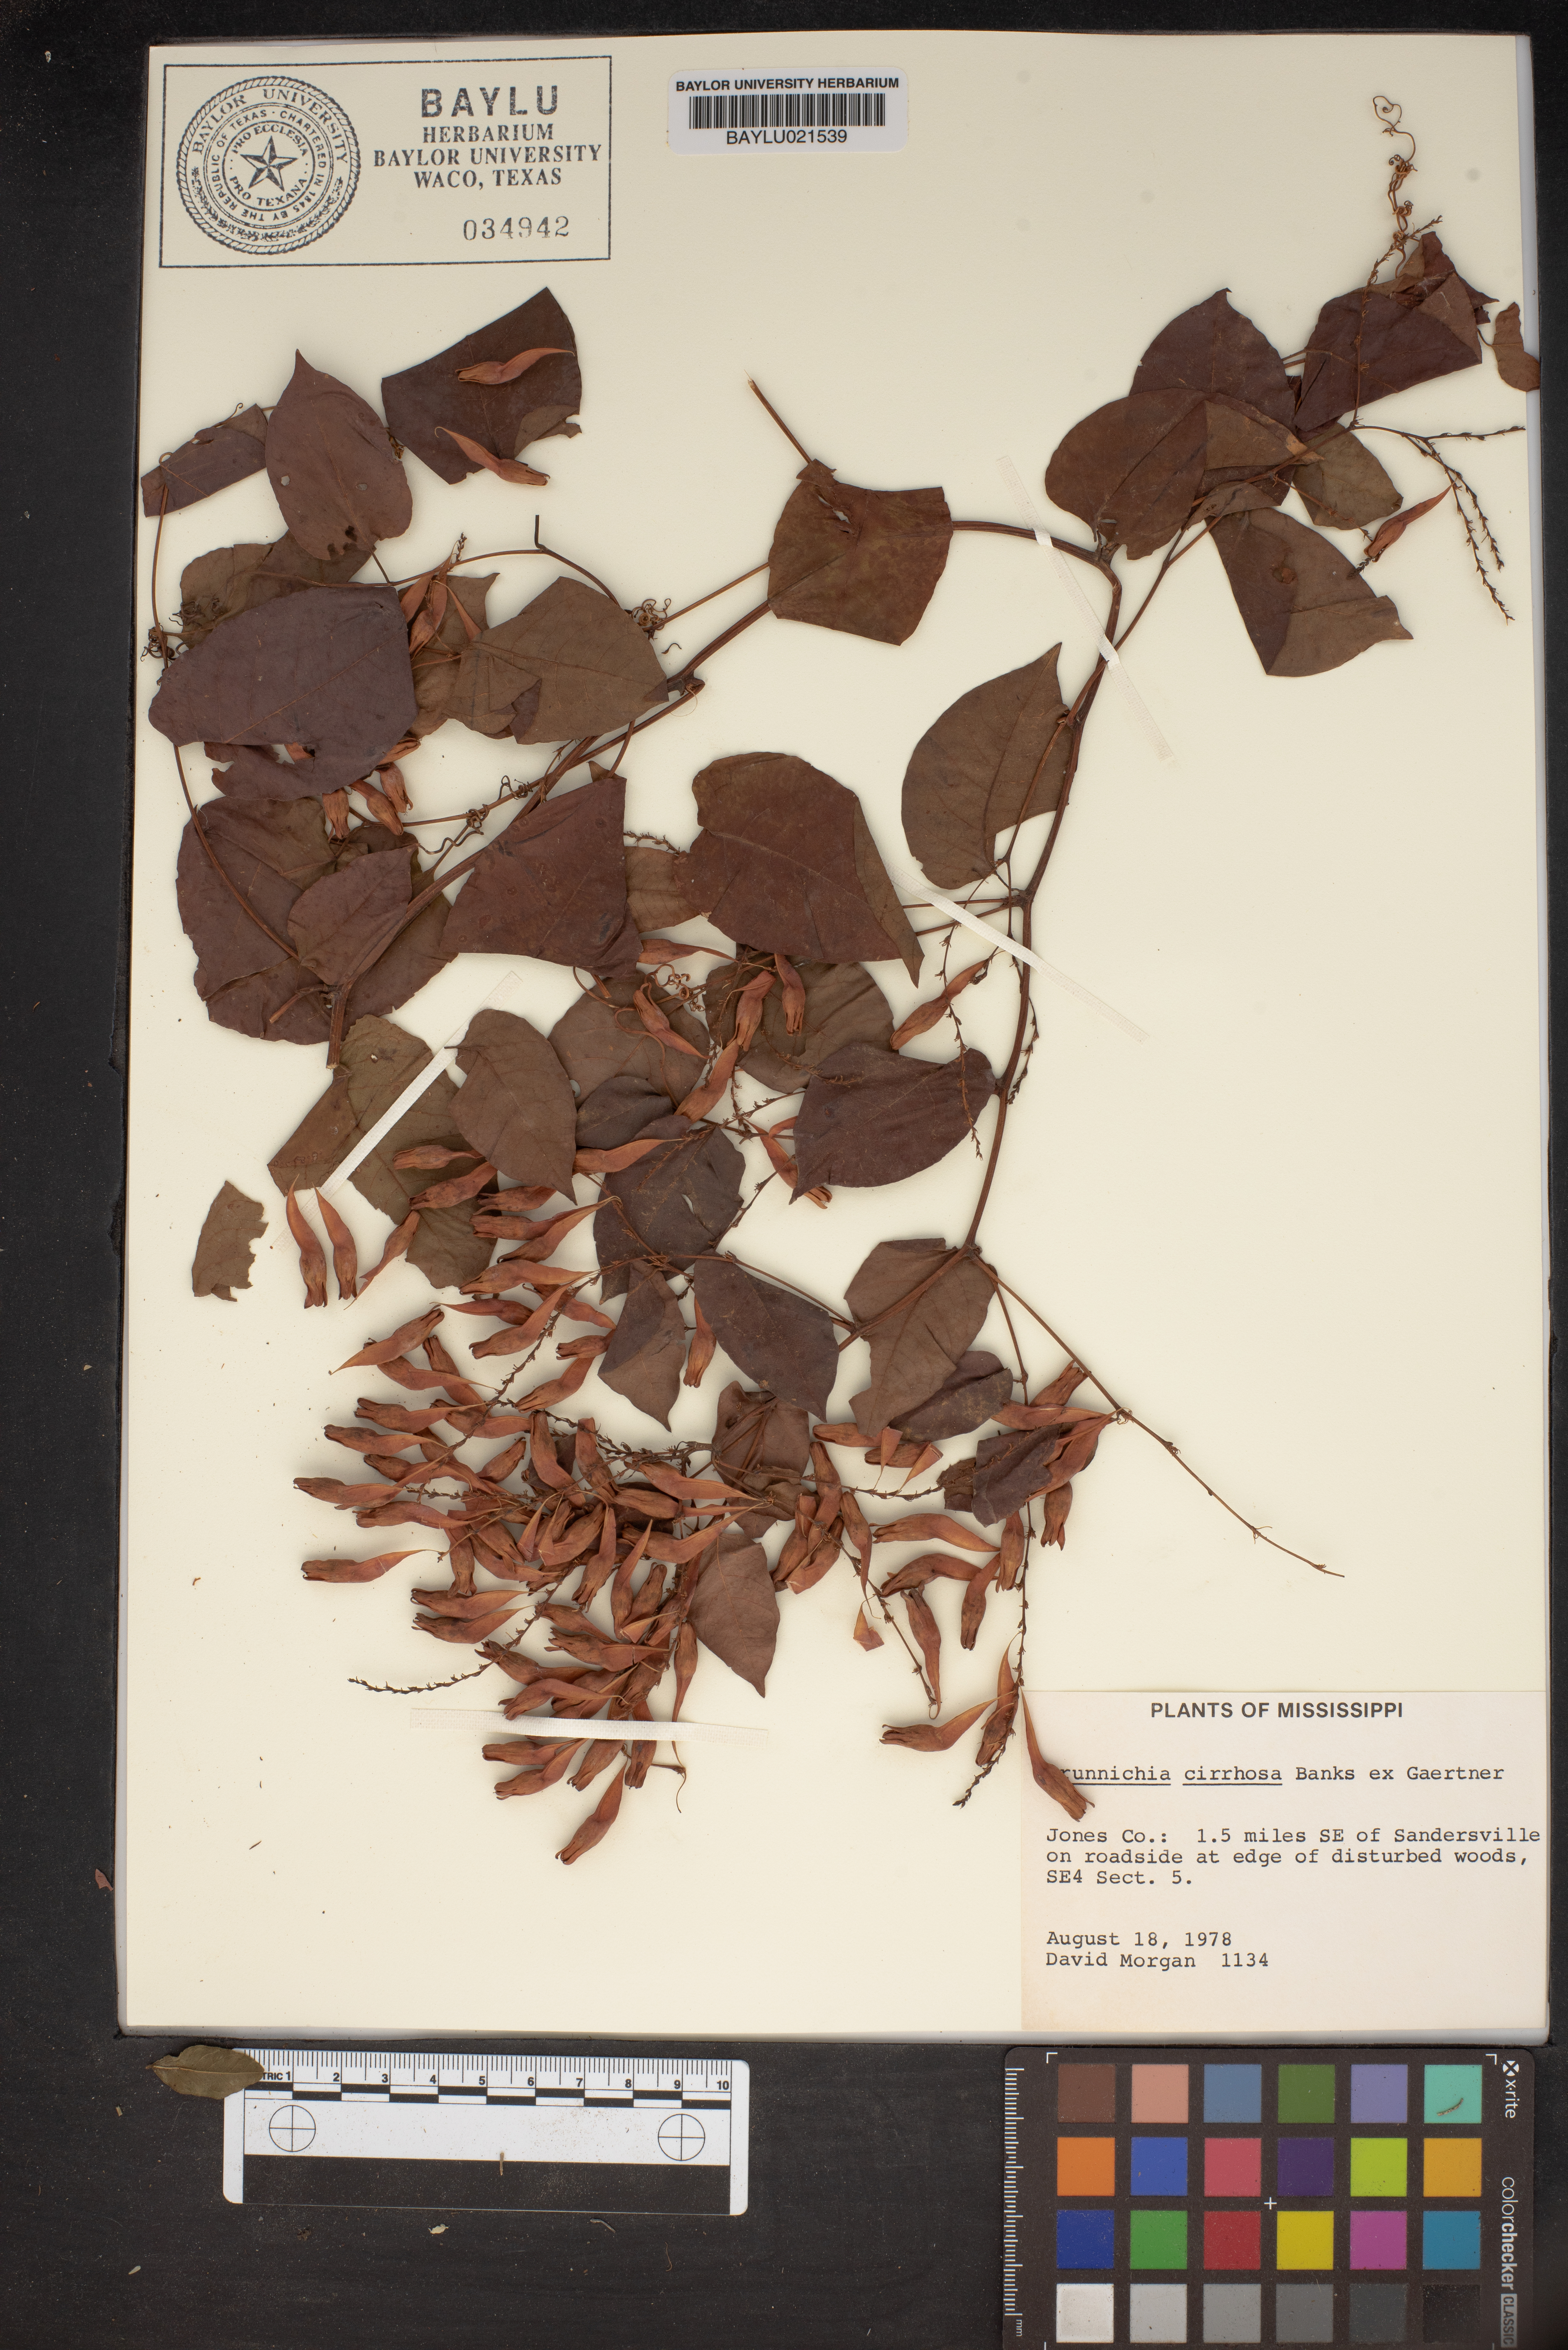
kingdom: Plantae
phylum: Tracheophyta
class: Magnoliopsida
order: Caryophyllales
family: Polygonaceae
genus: Brunnichia
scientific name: Brunnichia ovata
